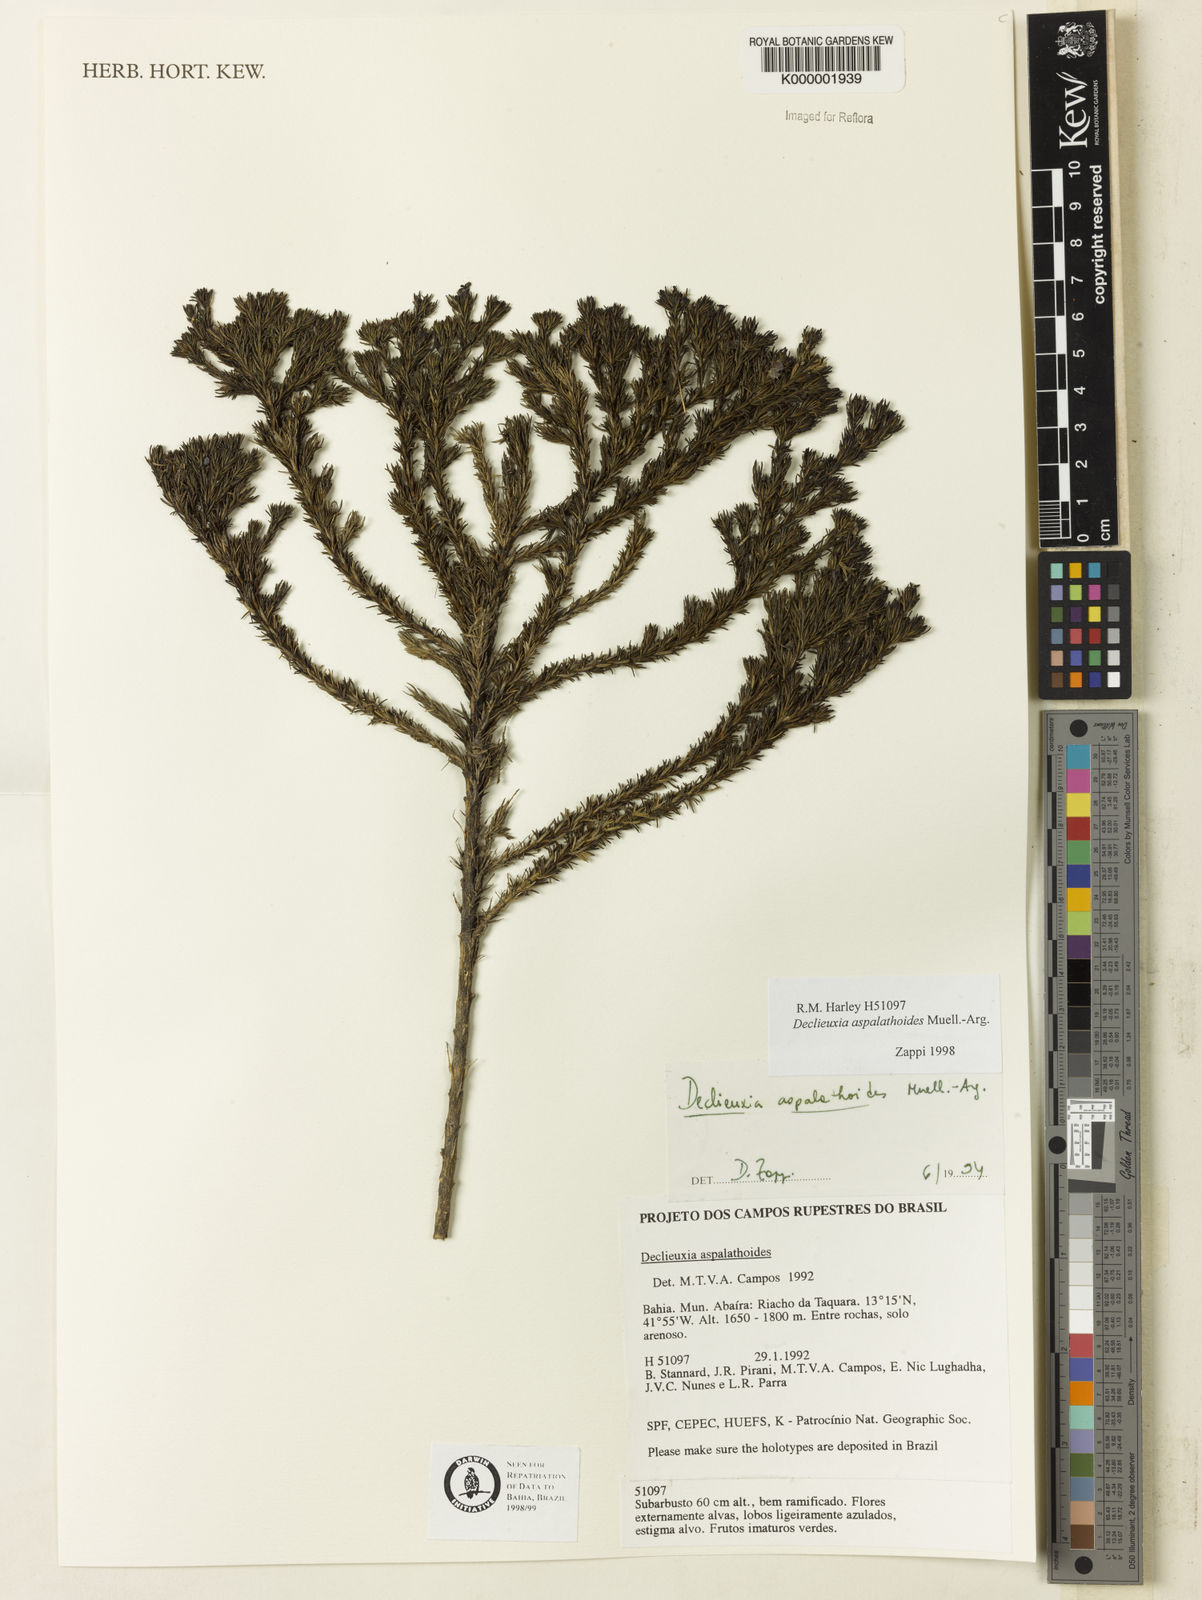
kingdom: Plantae
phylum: Tracheophyta
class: Magnoliopsida
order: Gentianales
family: Rubiaceae
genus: Declieuxia
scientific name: Declieuxia aspalathoides
